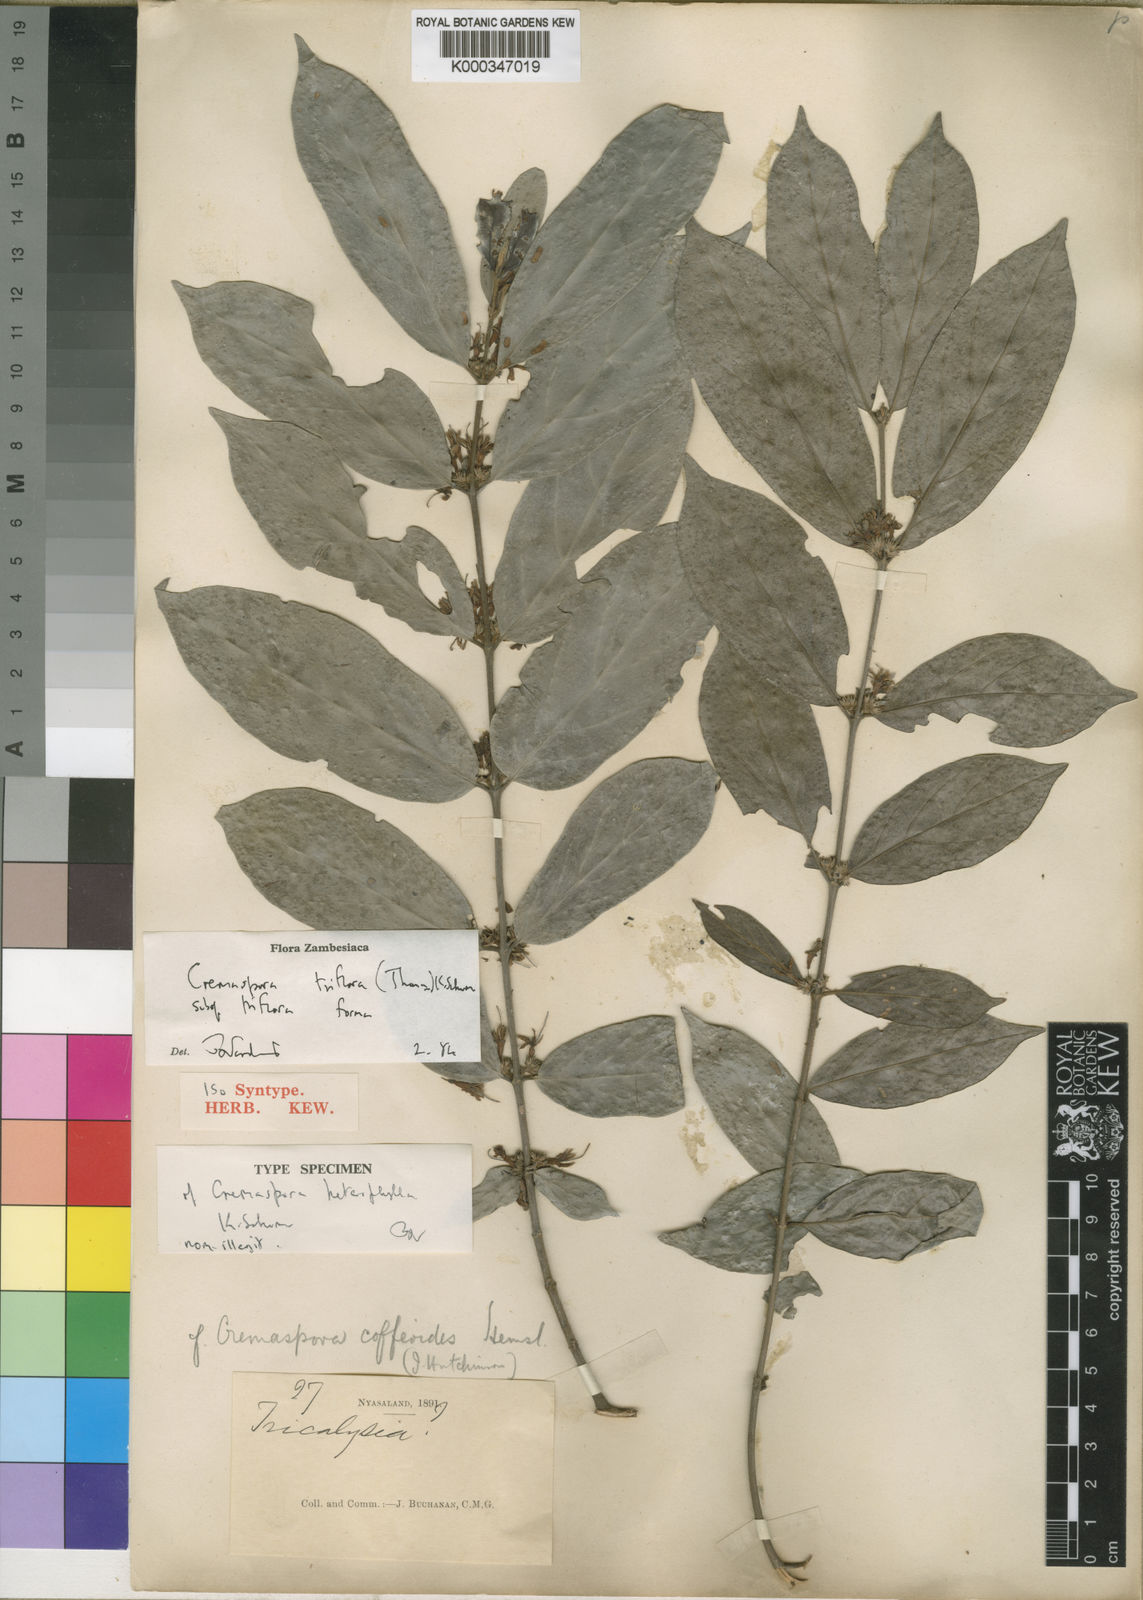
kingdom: Plantae
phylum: Tracheophyta
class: Magnoliopsida
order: Gentianales
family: Rubiaceae
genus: Cremaspora
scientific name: Cremaspora triflora
